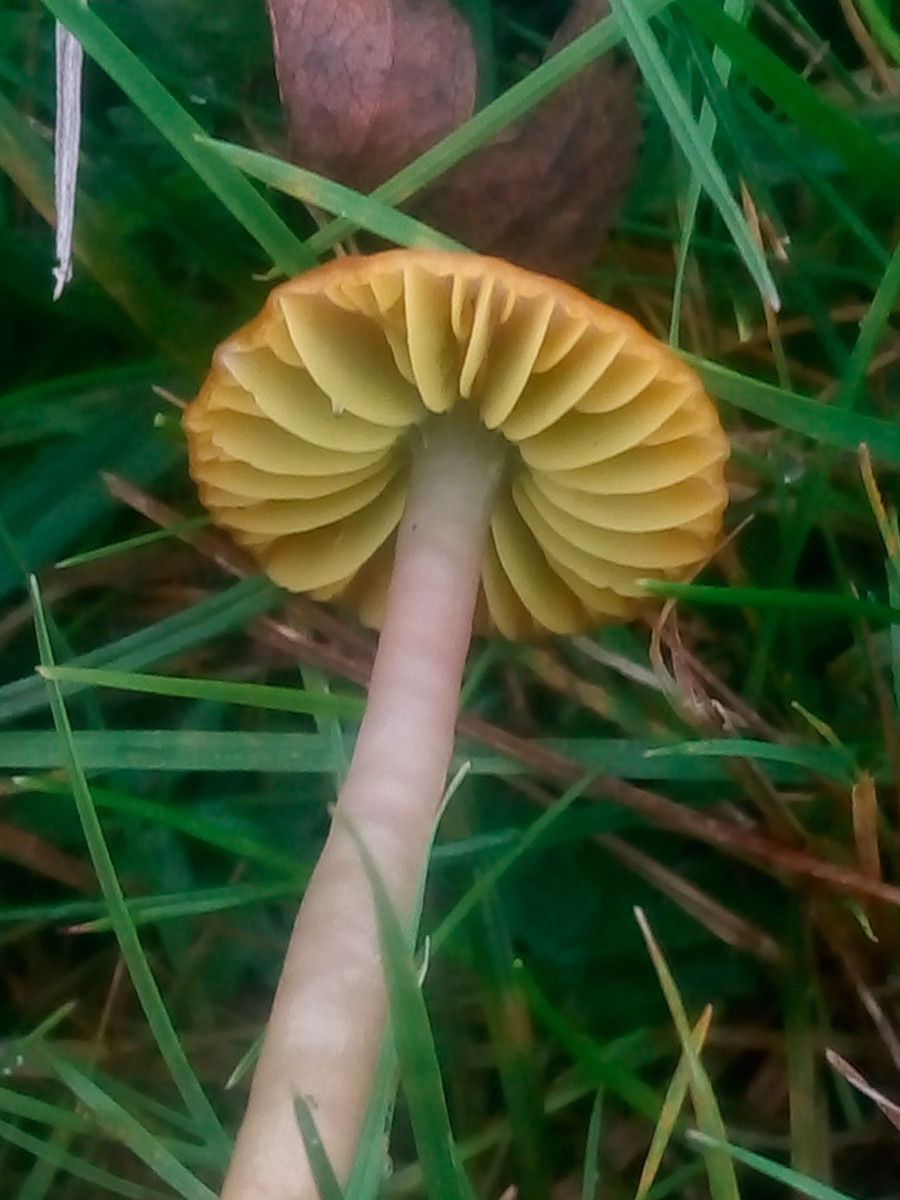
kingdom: Fungi
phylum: Basidiomycota
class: Agaricomycetes
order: Agaricales
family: Hygrophoraceae
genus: Gliophorus
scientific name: Gliophorus psittacinus
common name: papegøje-vokshat
